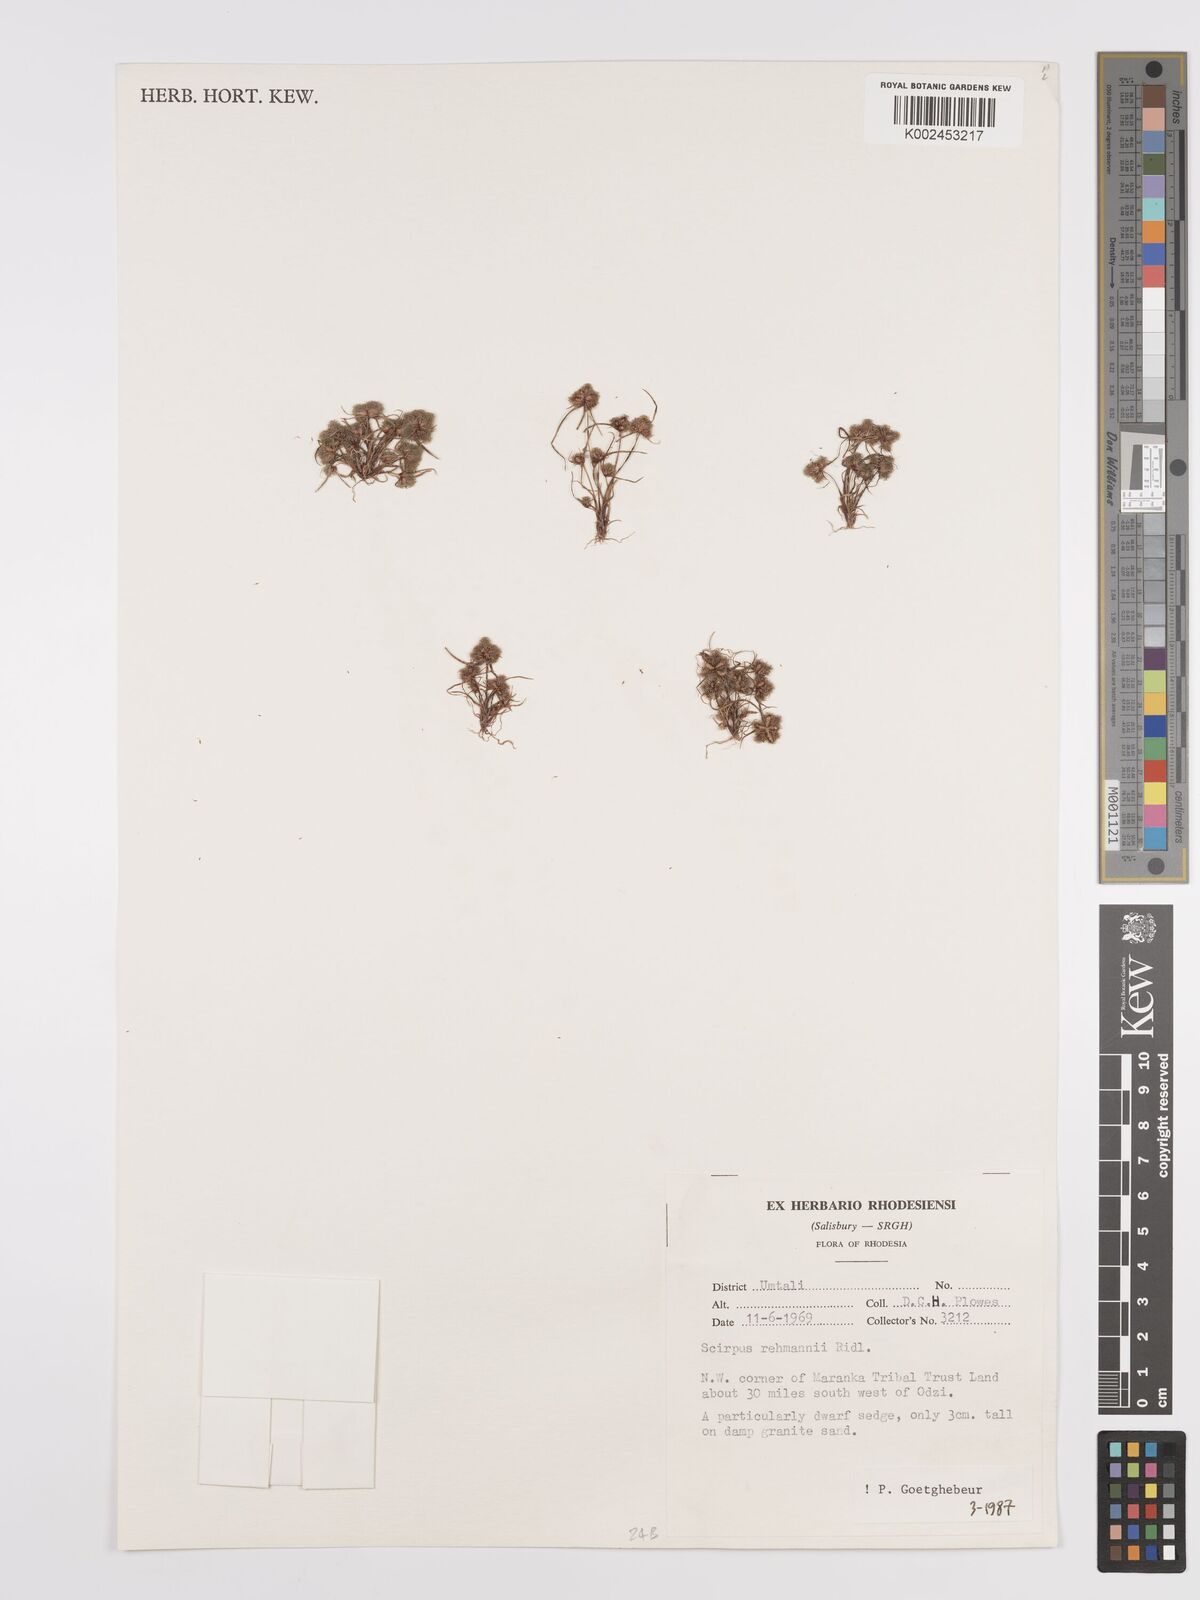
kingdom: Plantae
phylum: Tracheophyta
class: Liliopsida
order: Poales
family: Cyperaceae
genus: Cyperus
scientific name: Cyperus sanguinolentus
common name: Purpleglume flatsedge
